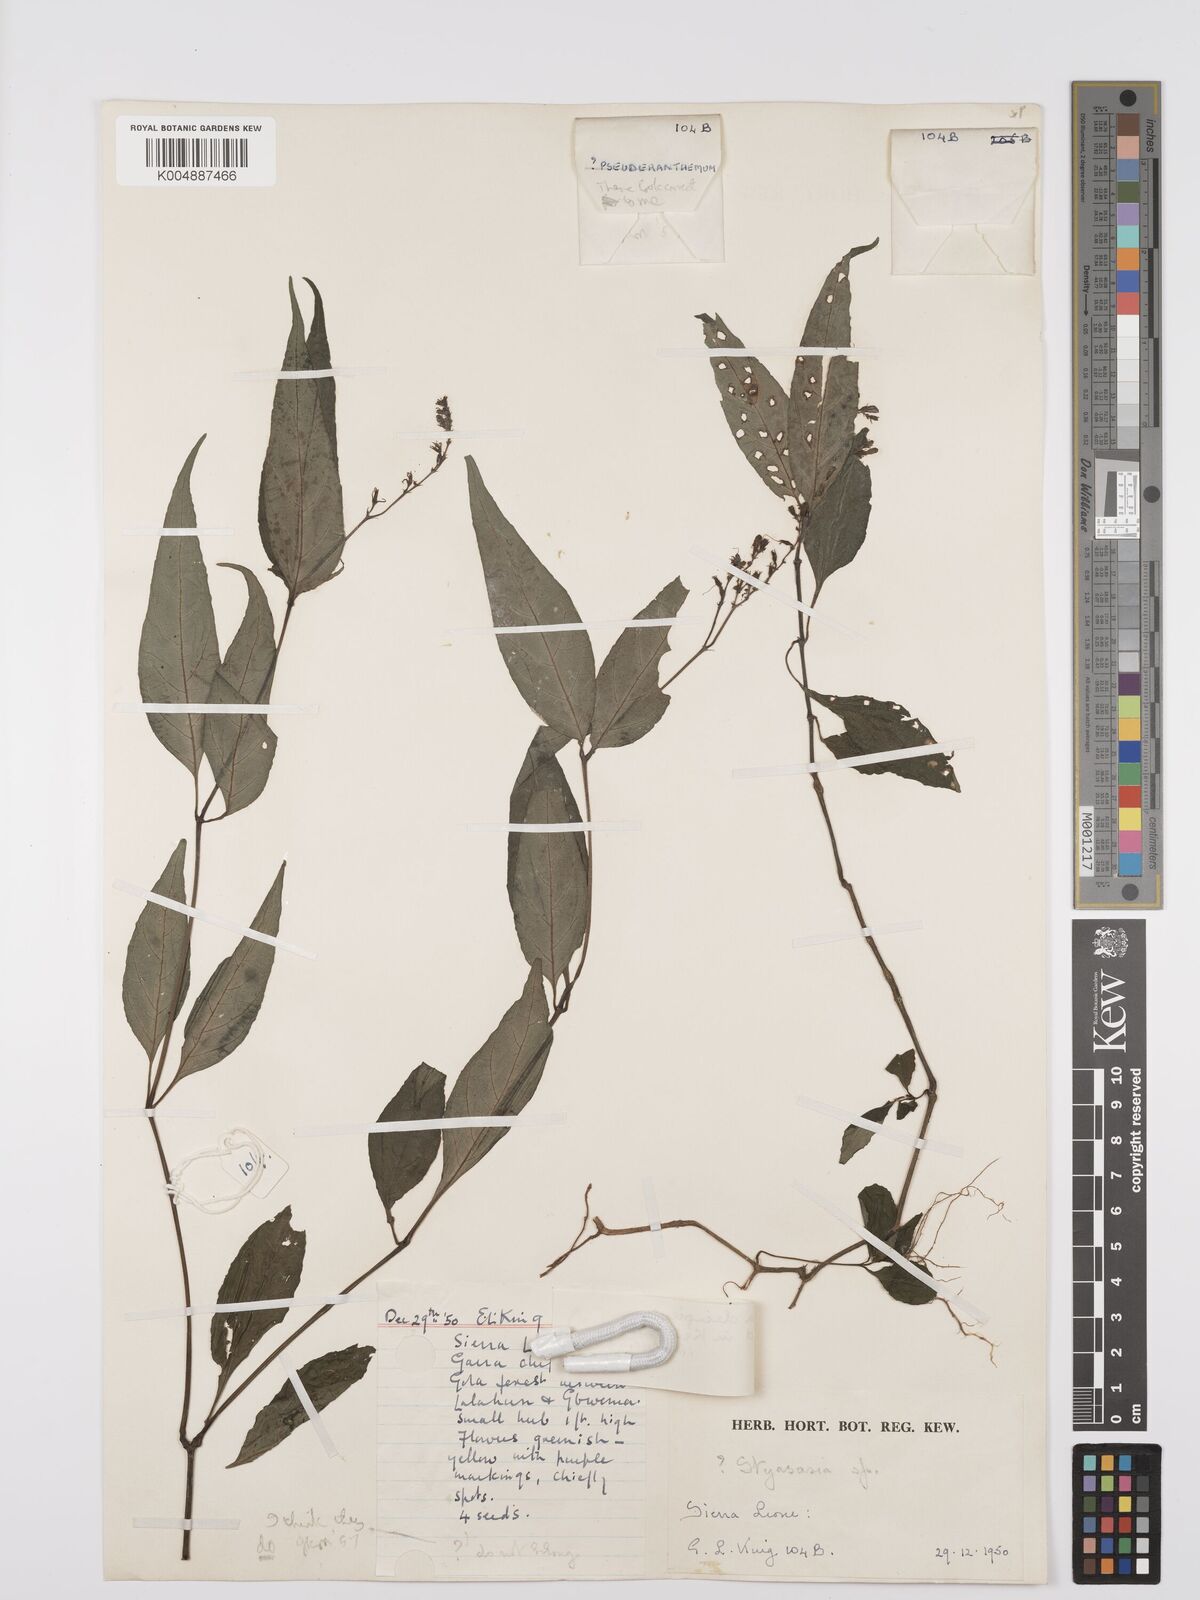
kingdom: Plantae
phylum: Tracheophyta
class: Magnoliopsida
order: Lamiales
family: Acanthaceae
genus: Asystasia
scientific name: Asystasia leptostachya
